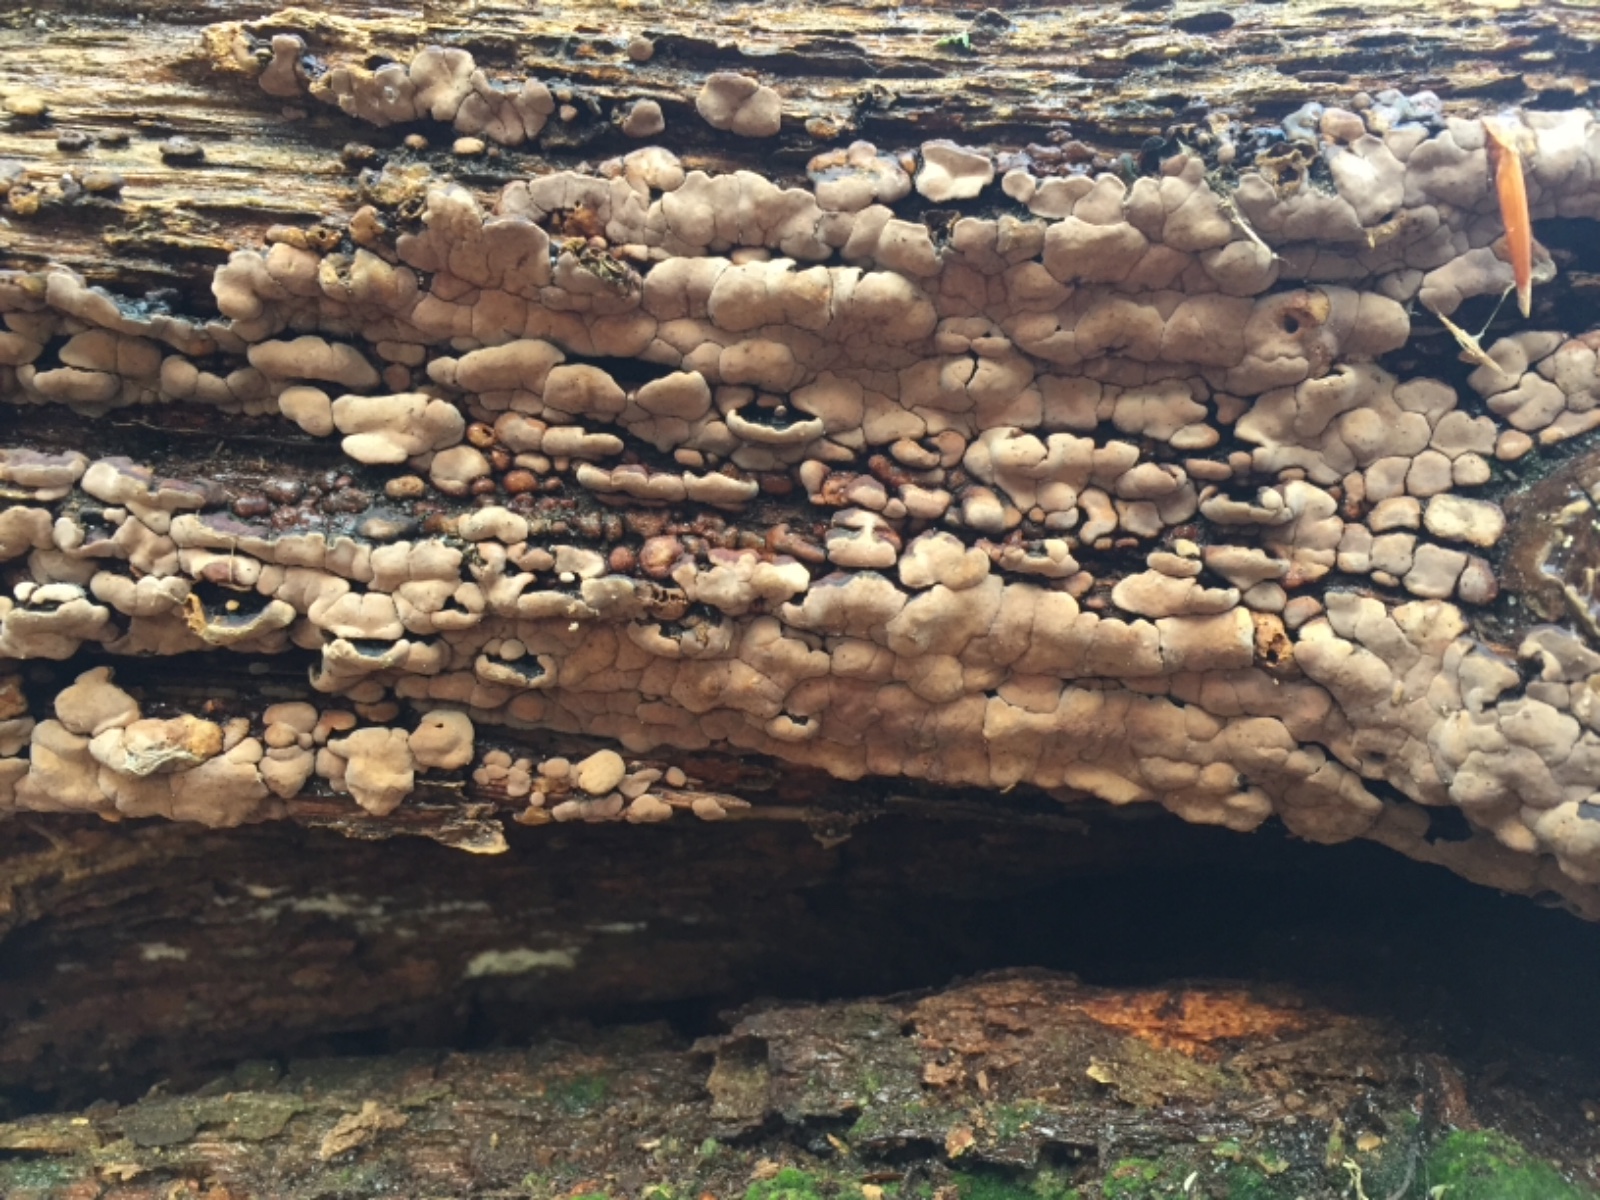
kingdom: Fungi
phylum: Basidiomycota
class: Agaricomycetes
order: Russulales
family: Stereaceae
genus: Xylobolus
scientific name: Xylobolus frustulatus
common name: mønster-lædersvamp
